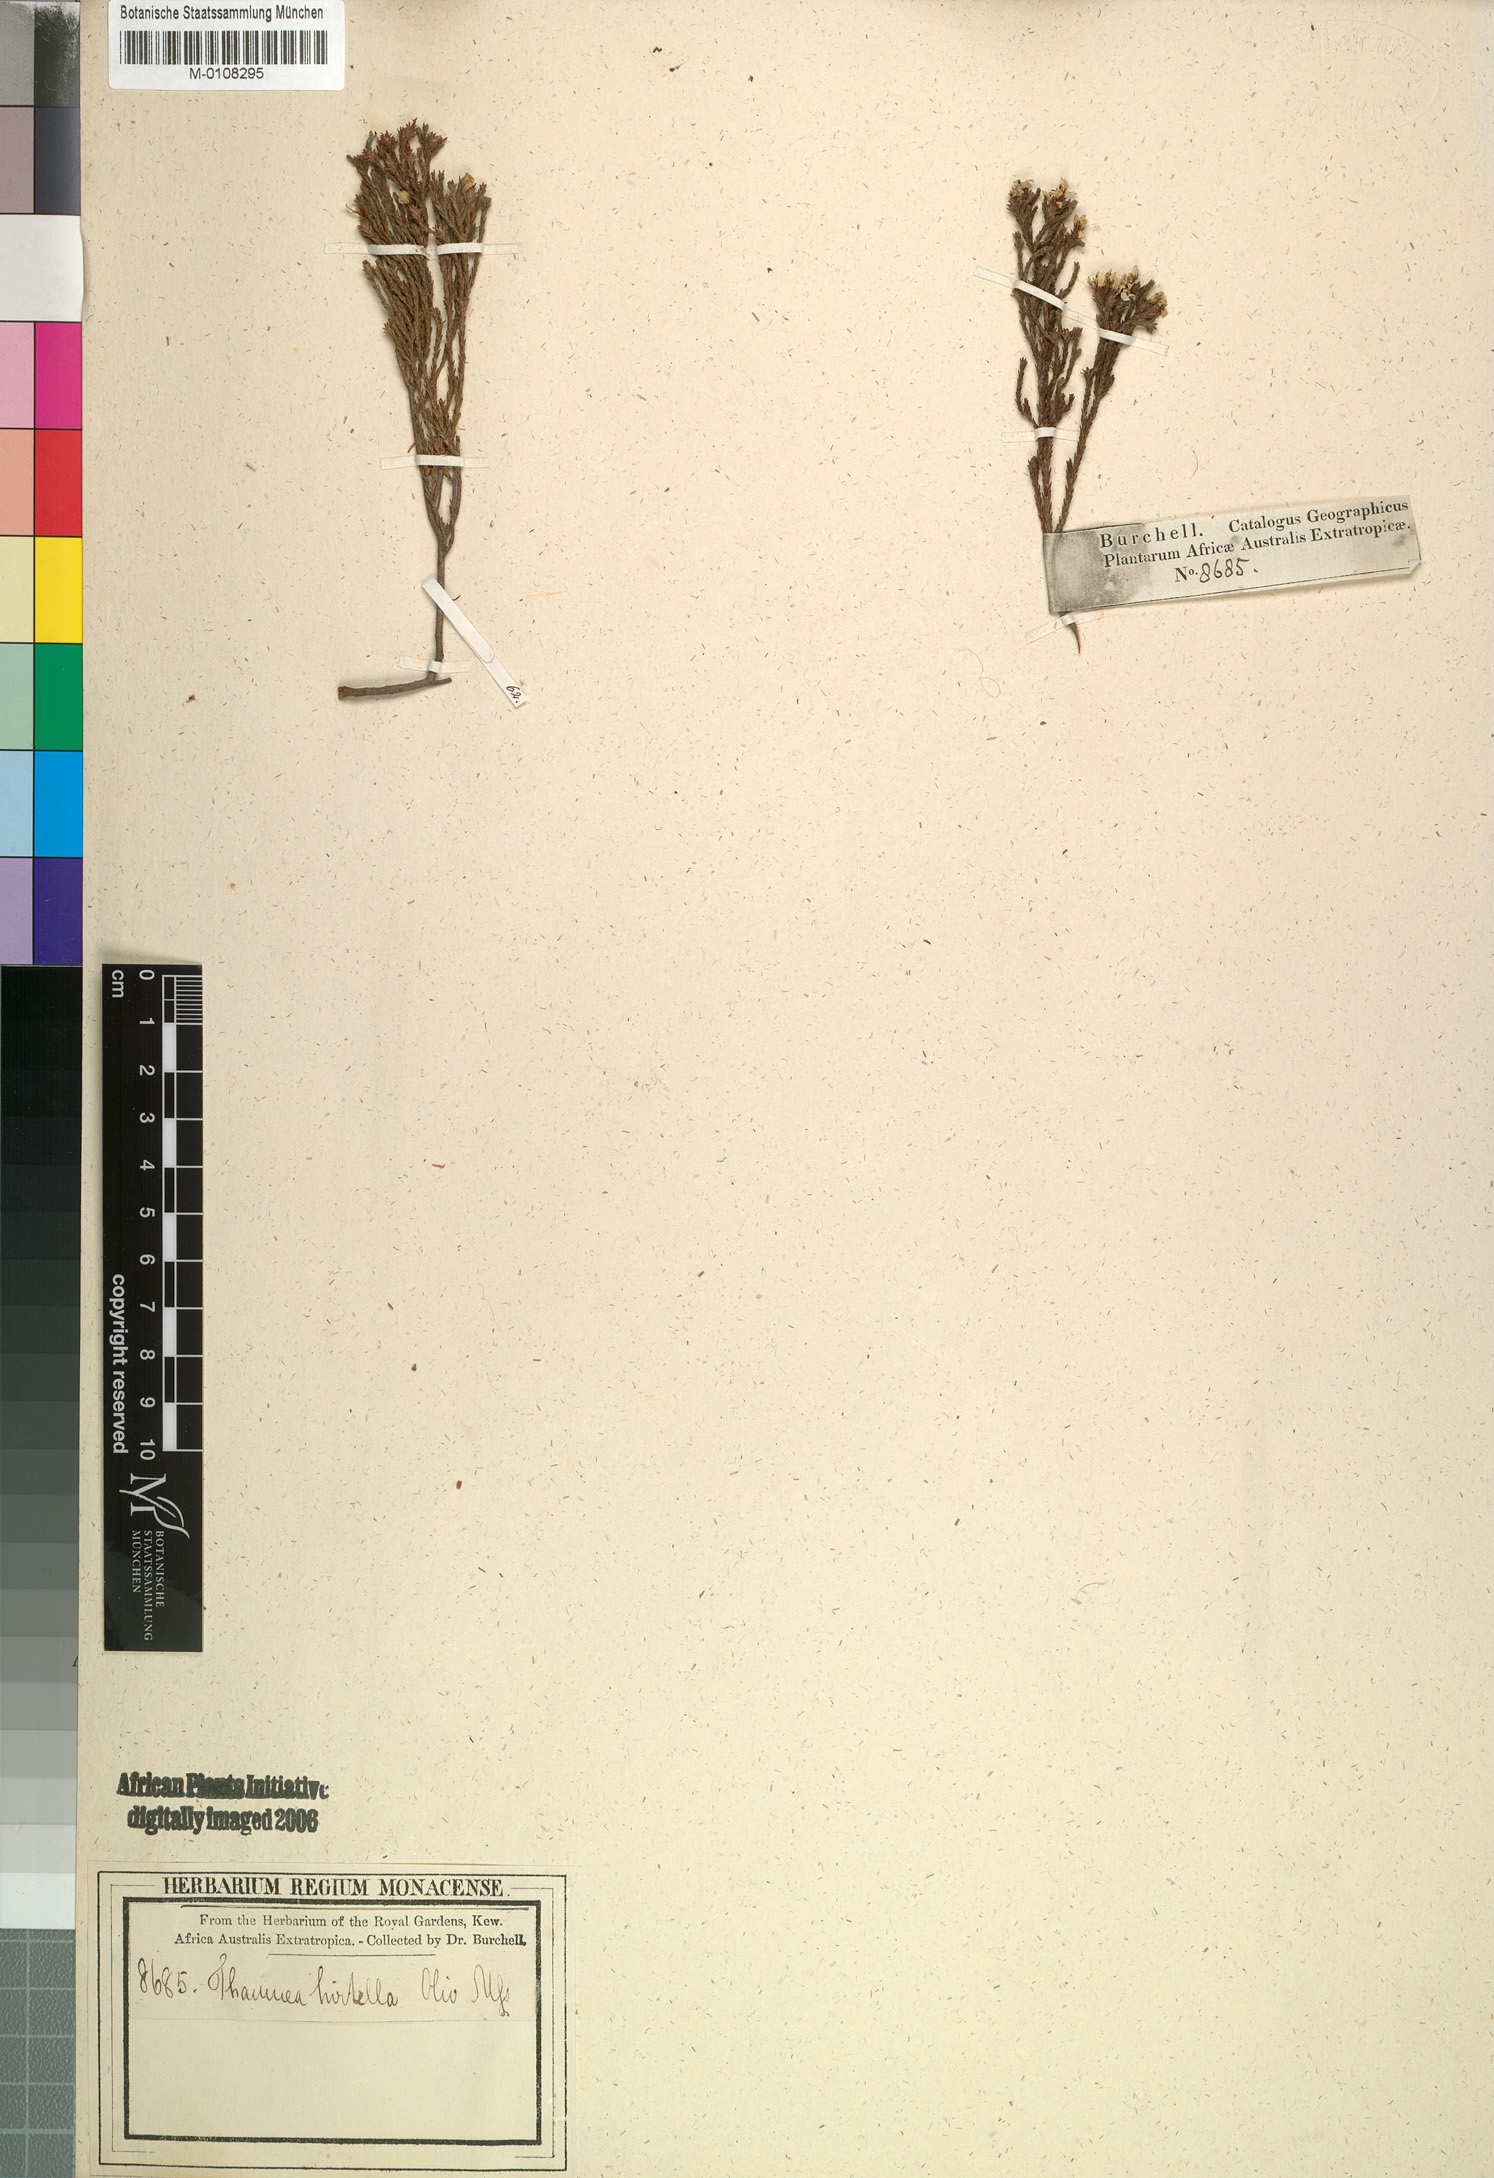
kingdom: Plantae
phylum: Tracheophyta
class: Magnoliopsida
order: Bruniales
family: Bruniaceae
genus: Thamnea
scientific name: Thamnea hirtella
